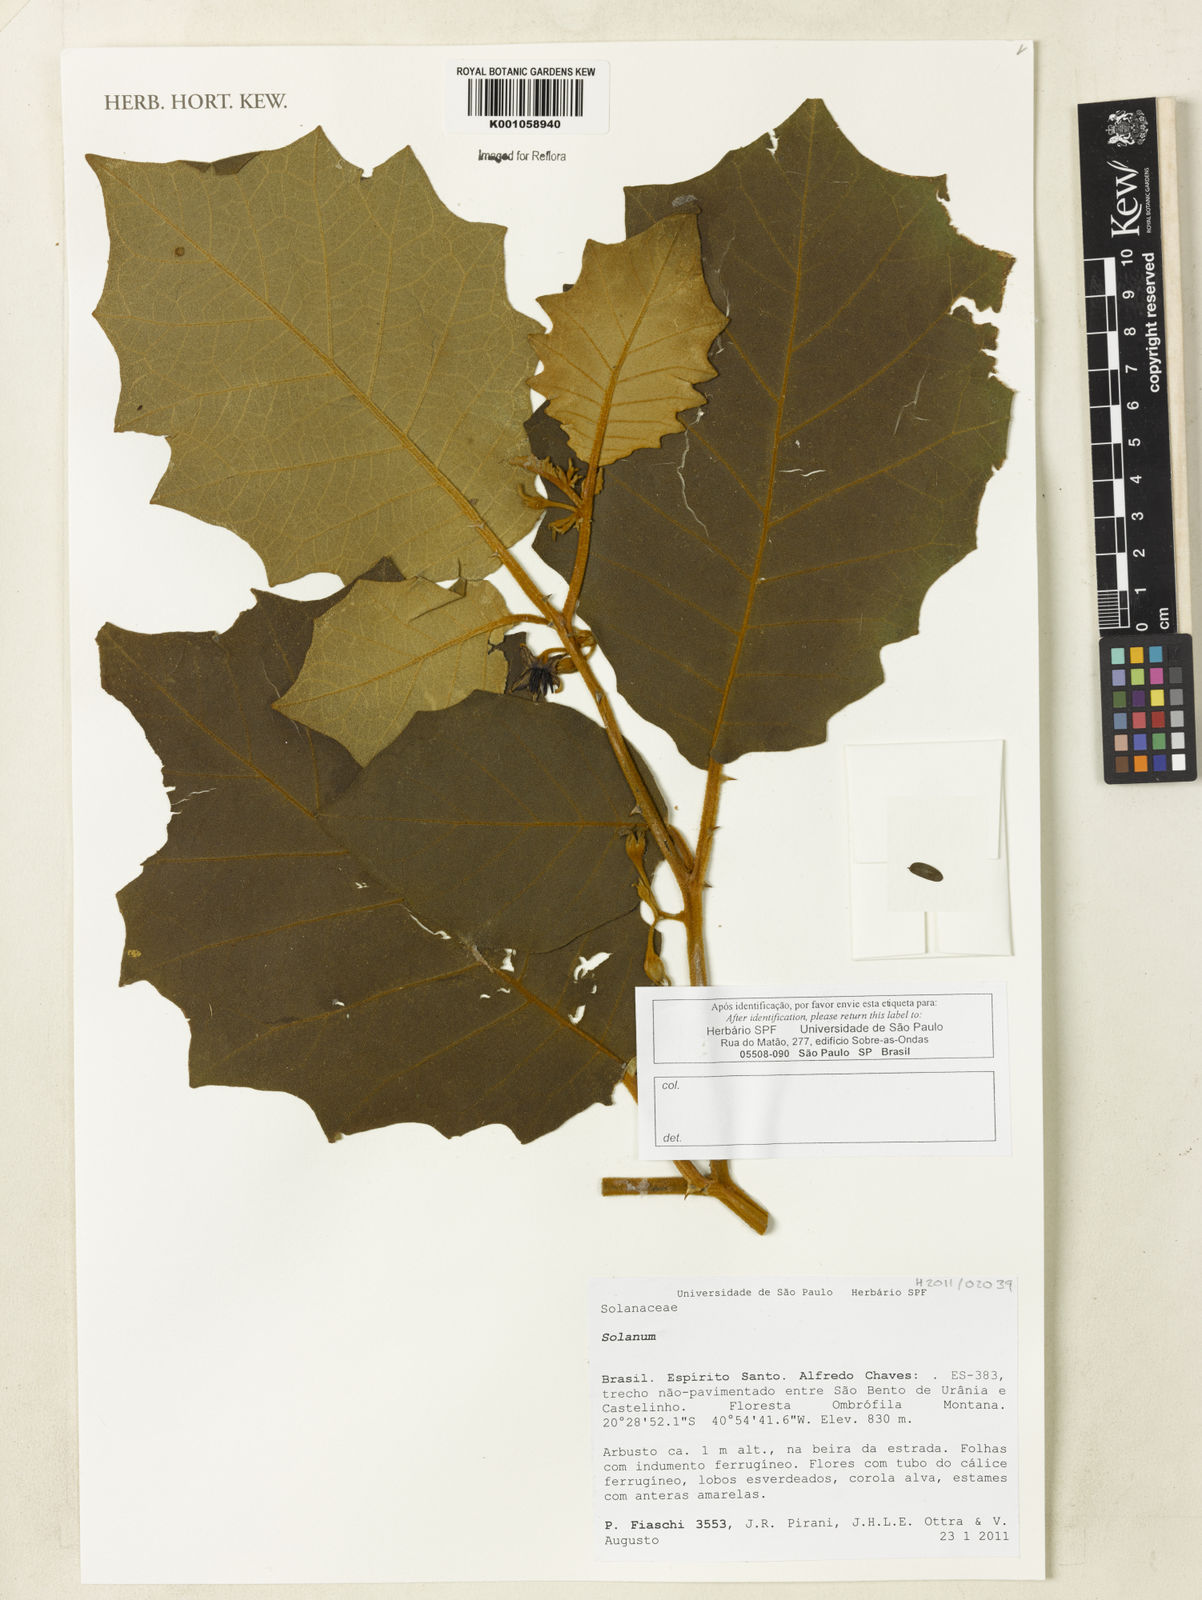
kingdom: Plantae
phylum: Tracheophyta
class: Magnoliopsida
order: Solanales
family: Solanaceae
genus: Capsicum
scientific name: Capsicum villosum
